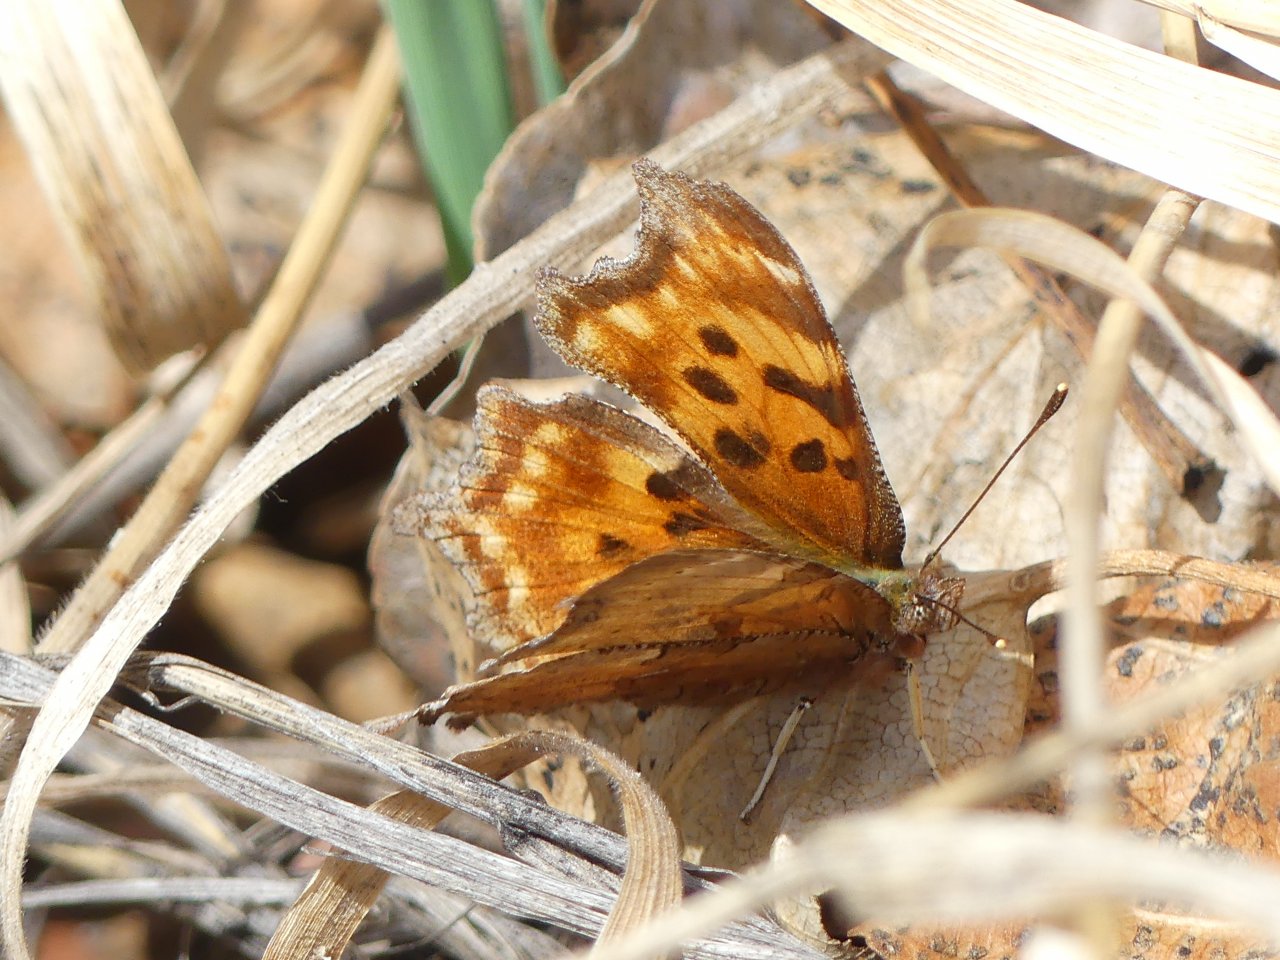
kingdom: Animalia
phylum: Arthropoda
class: Insecta
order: Lepidoptera
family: Nymphalidae
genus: Polygonia
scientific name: Polygonia satyrus
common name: Satyr Comma
